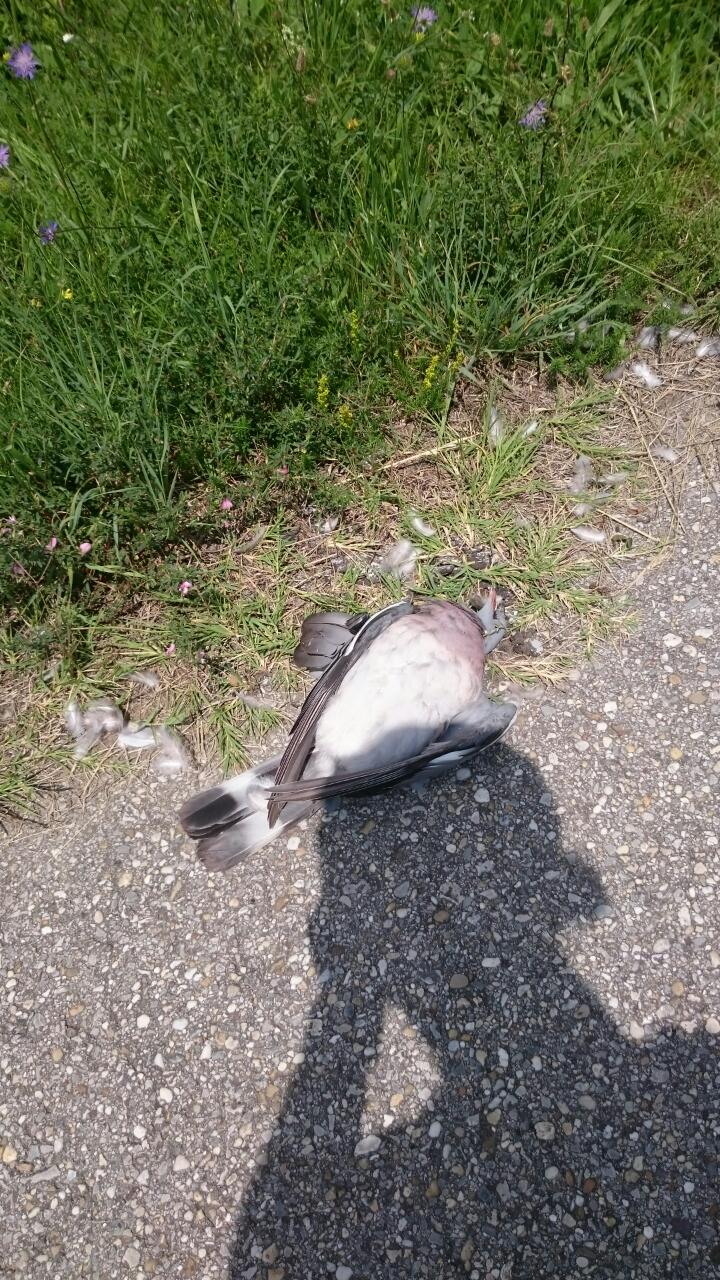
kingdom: Animalia
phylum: Chordata
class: Aves
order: Columbiformes
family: Columbidae
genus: Columba
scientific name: Columba palumbus
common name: Common wood pigeon
